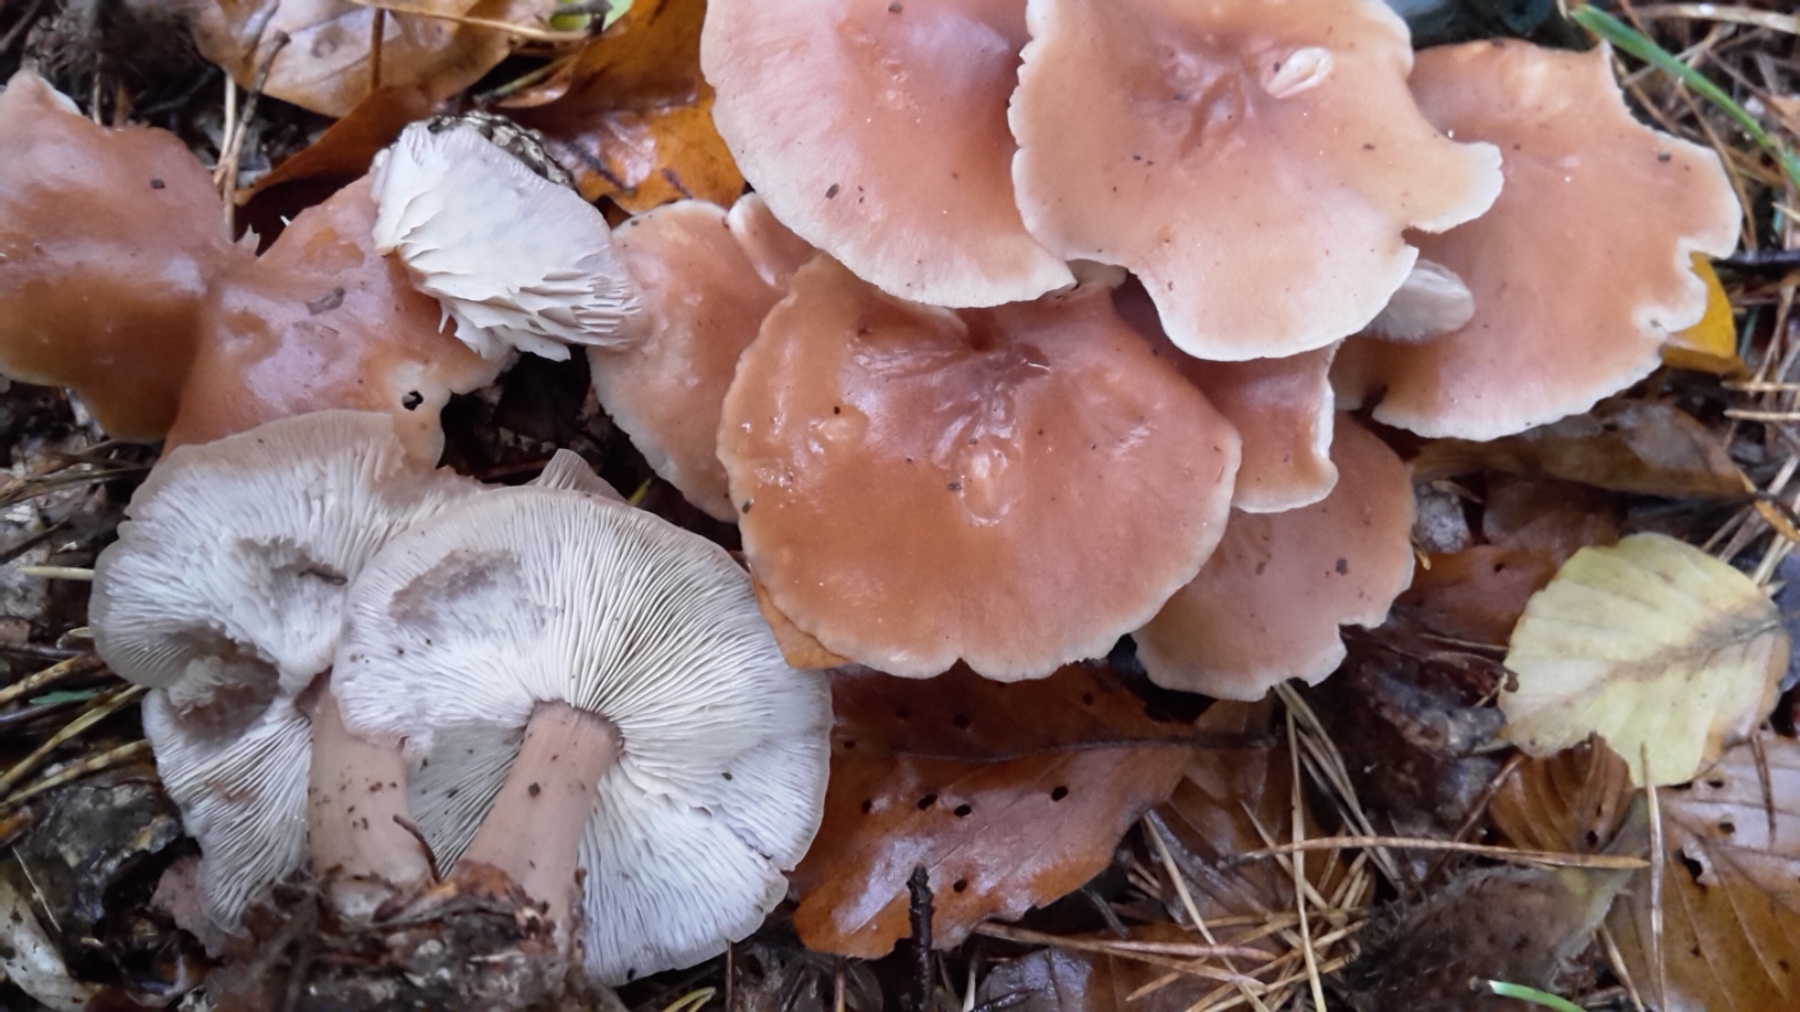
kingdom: Fungi
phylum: Basidiomycota
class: Agaricomycetes
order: Agaricales
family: Tricholomataceae
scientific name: Tricholomataceae
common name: ridderhatfamilien
